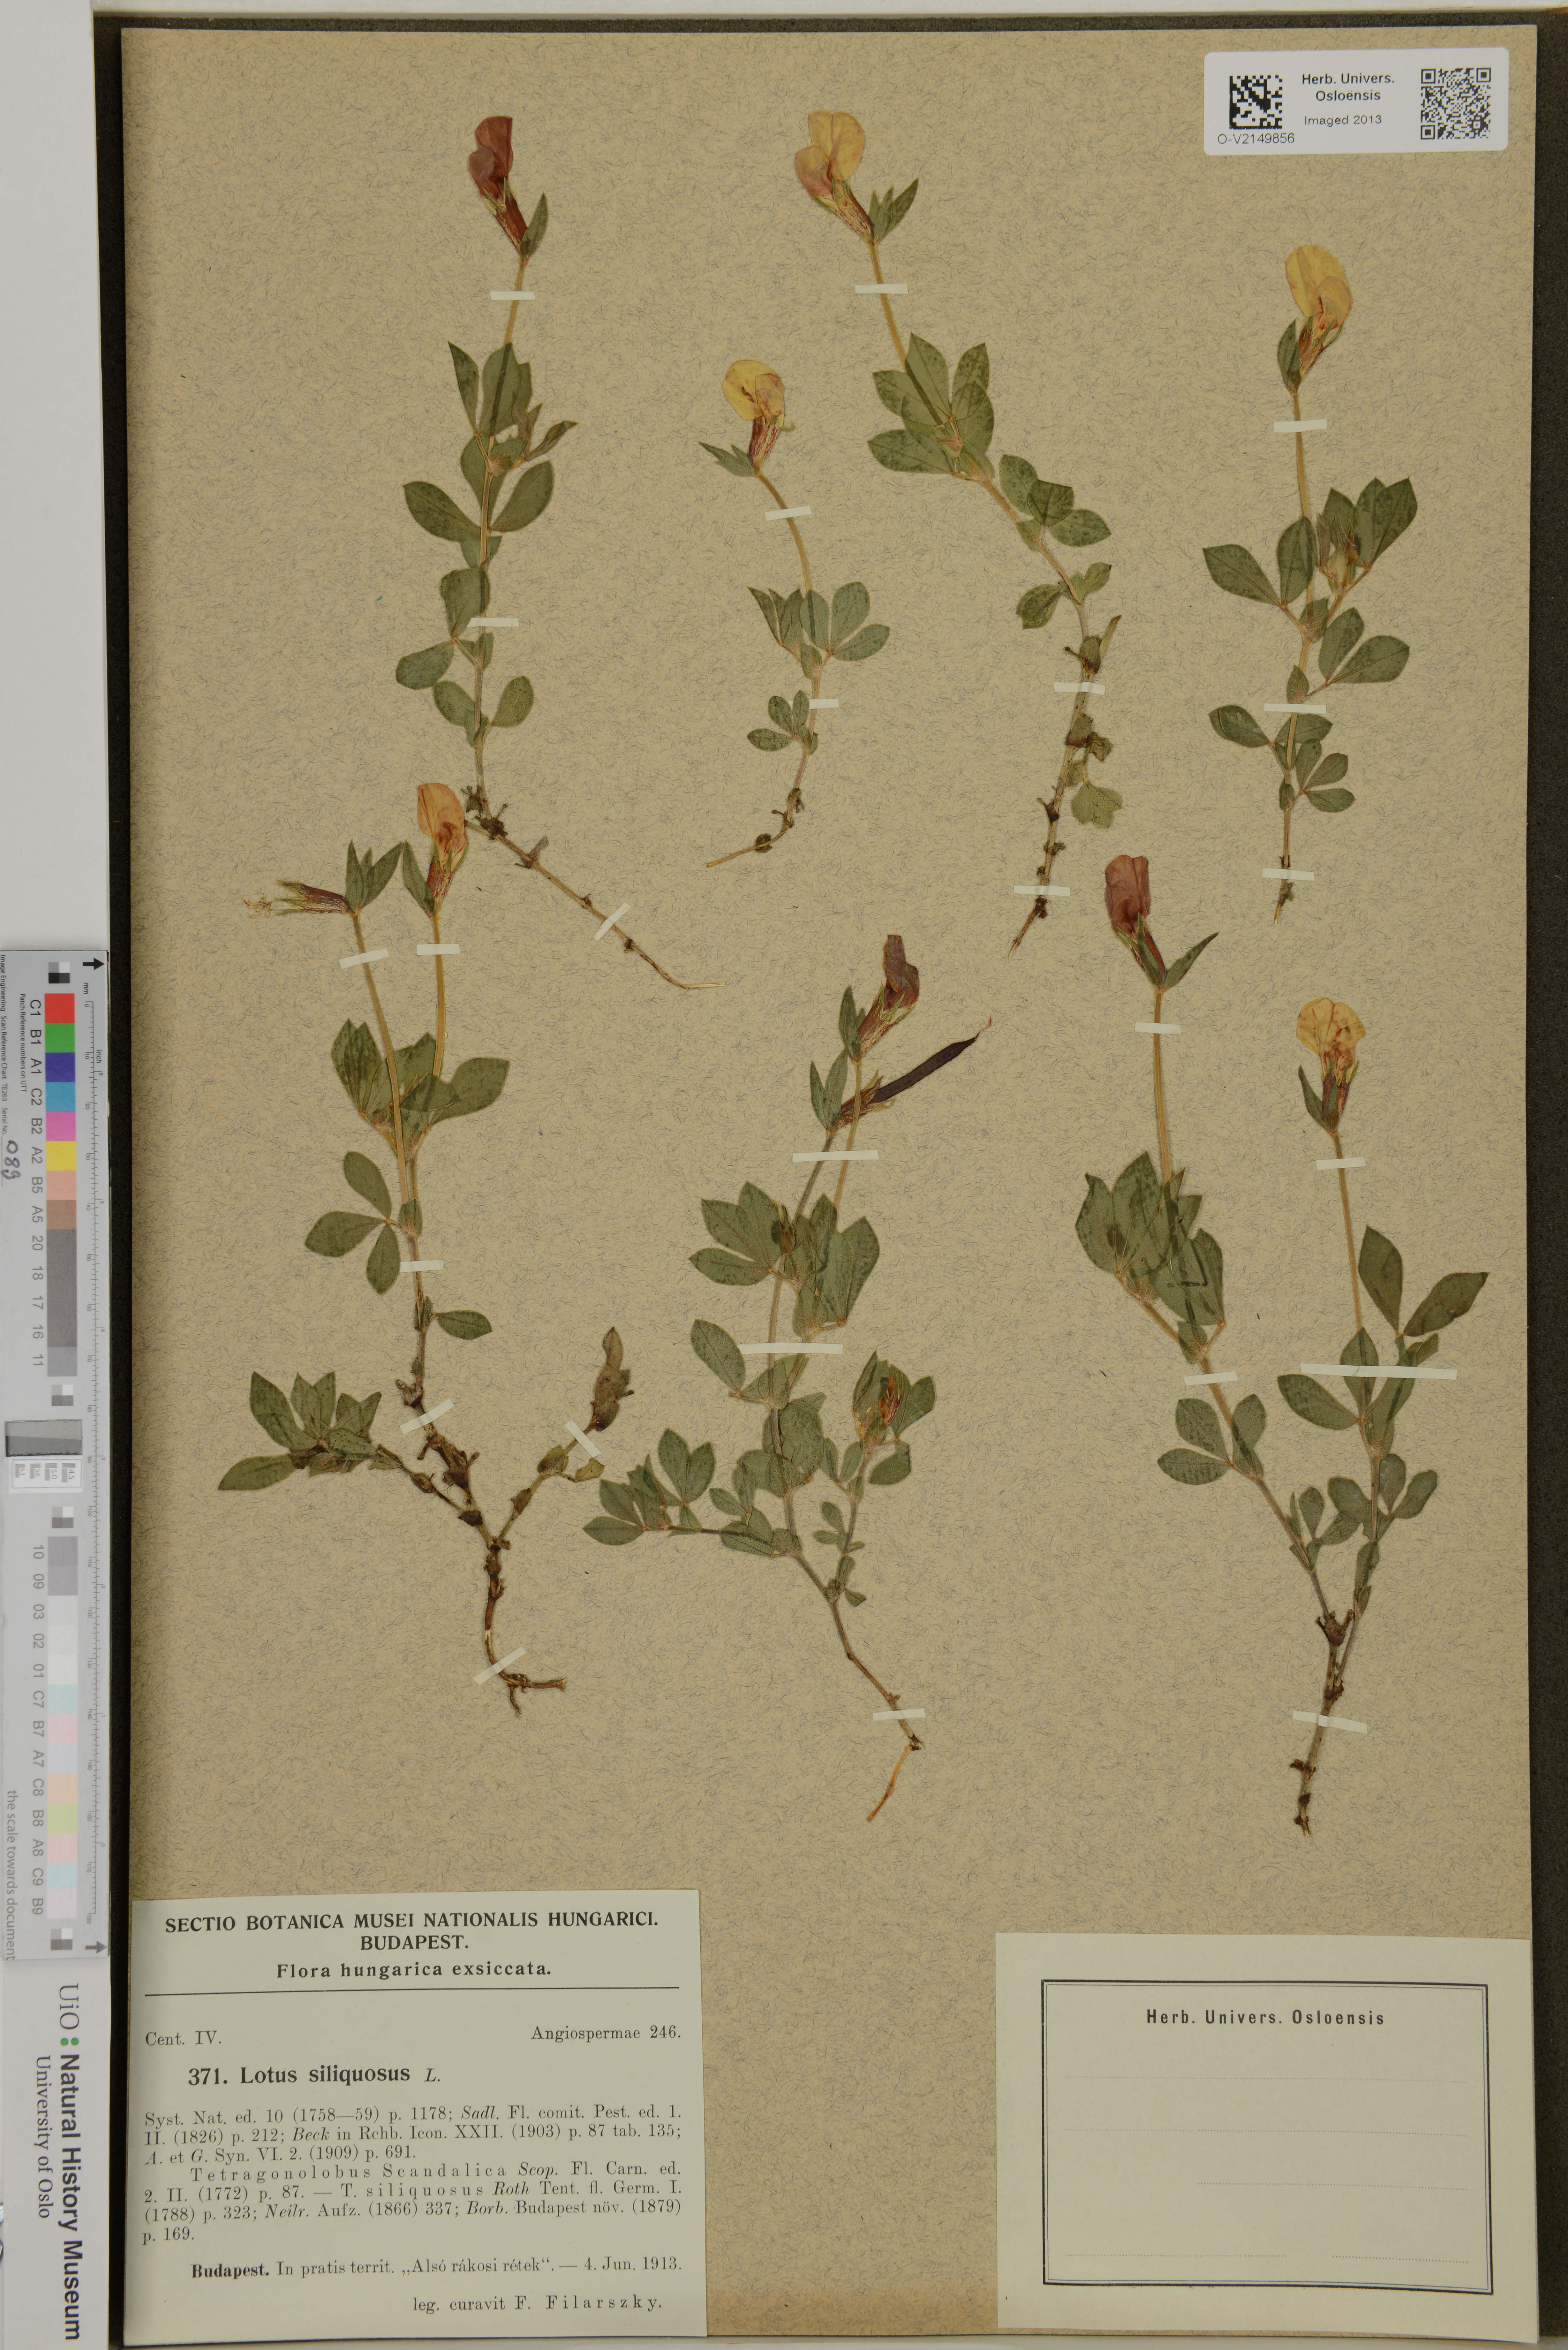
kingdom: Plantae
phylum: Tracheophyta
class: Magnoliopsida
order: Fabales
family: Fabaceae
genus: Lotus
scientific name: Lotus maritimus
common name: Dragon's-teeth
